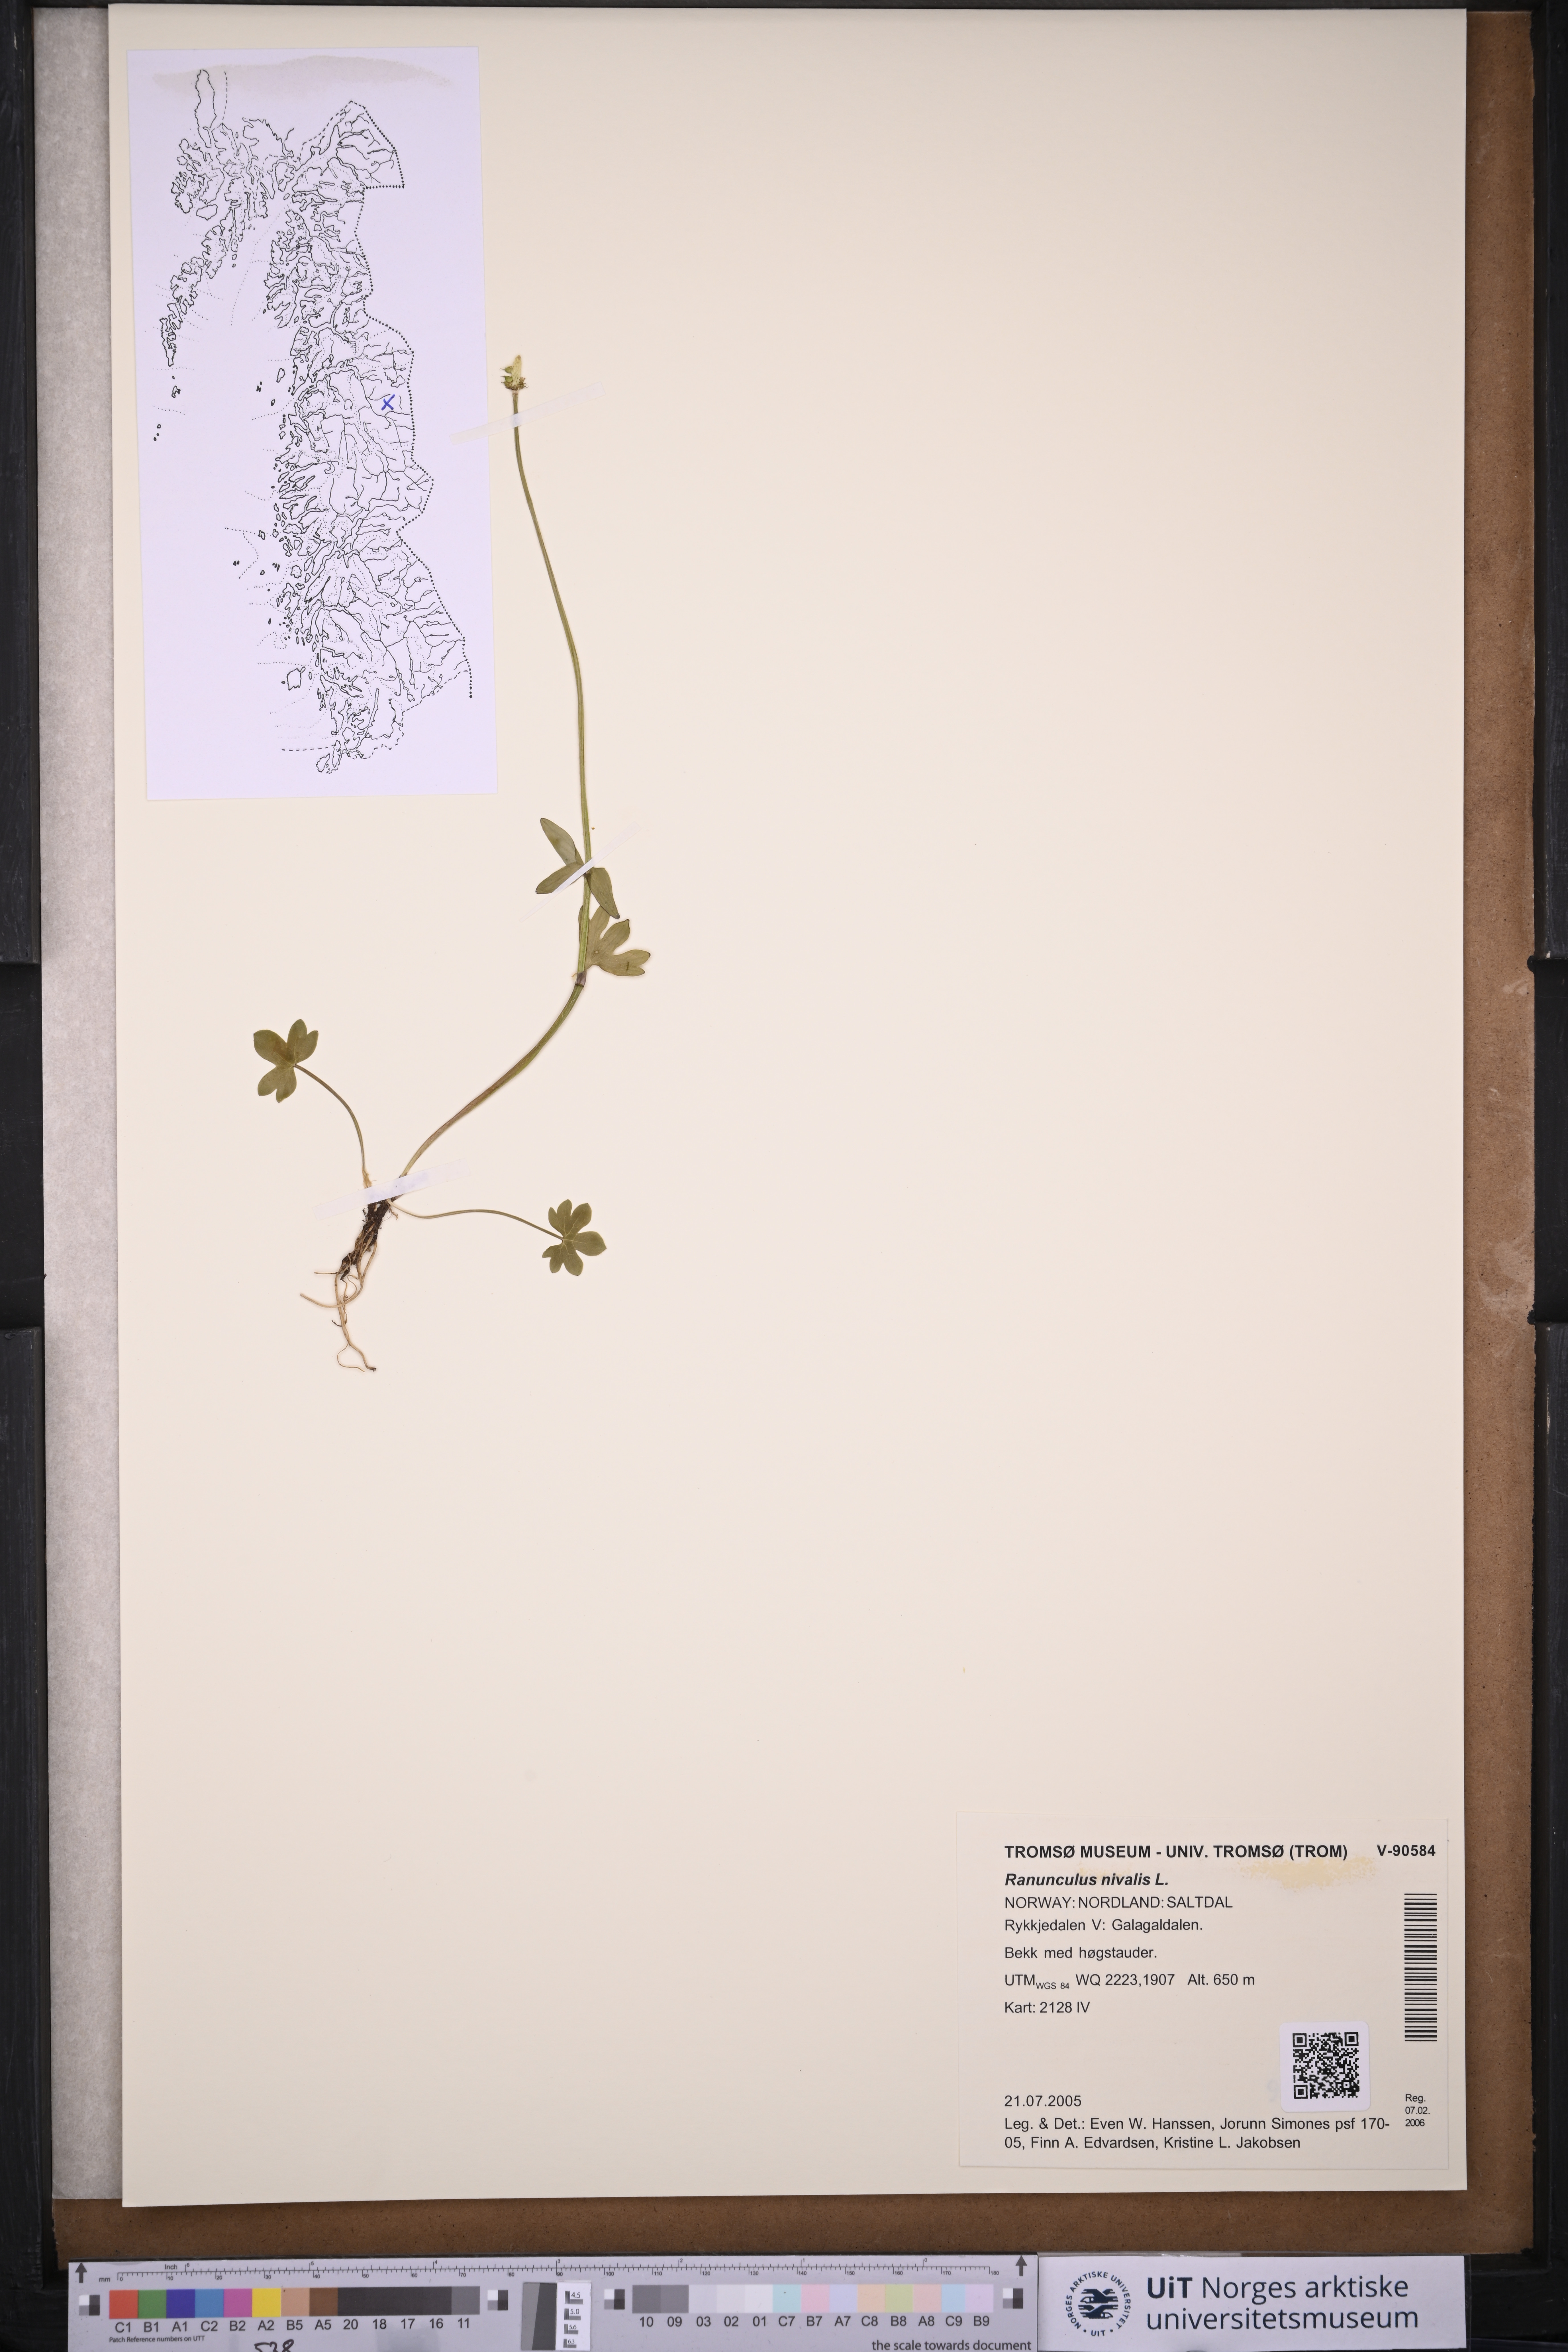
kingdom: Plantae
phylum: Tracheophyta
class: Magnoliopsida
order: Ranunculales
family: Ranunculaceae
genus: Ranunculus
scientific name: Ranunculus nivalis
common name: Snow buttercup
